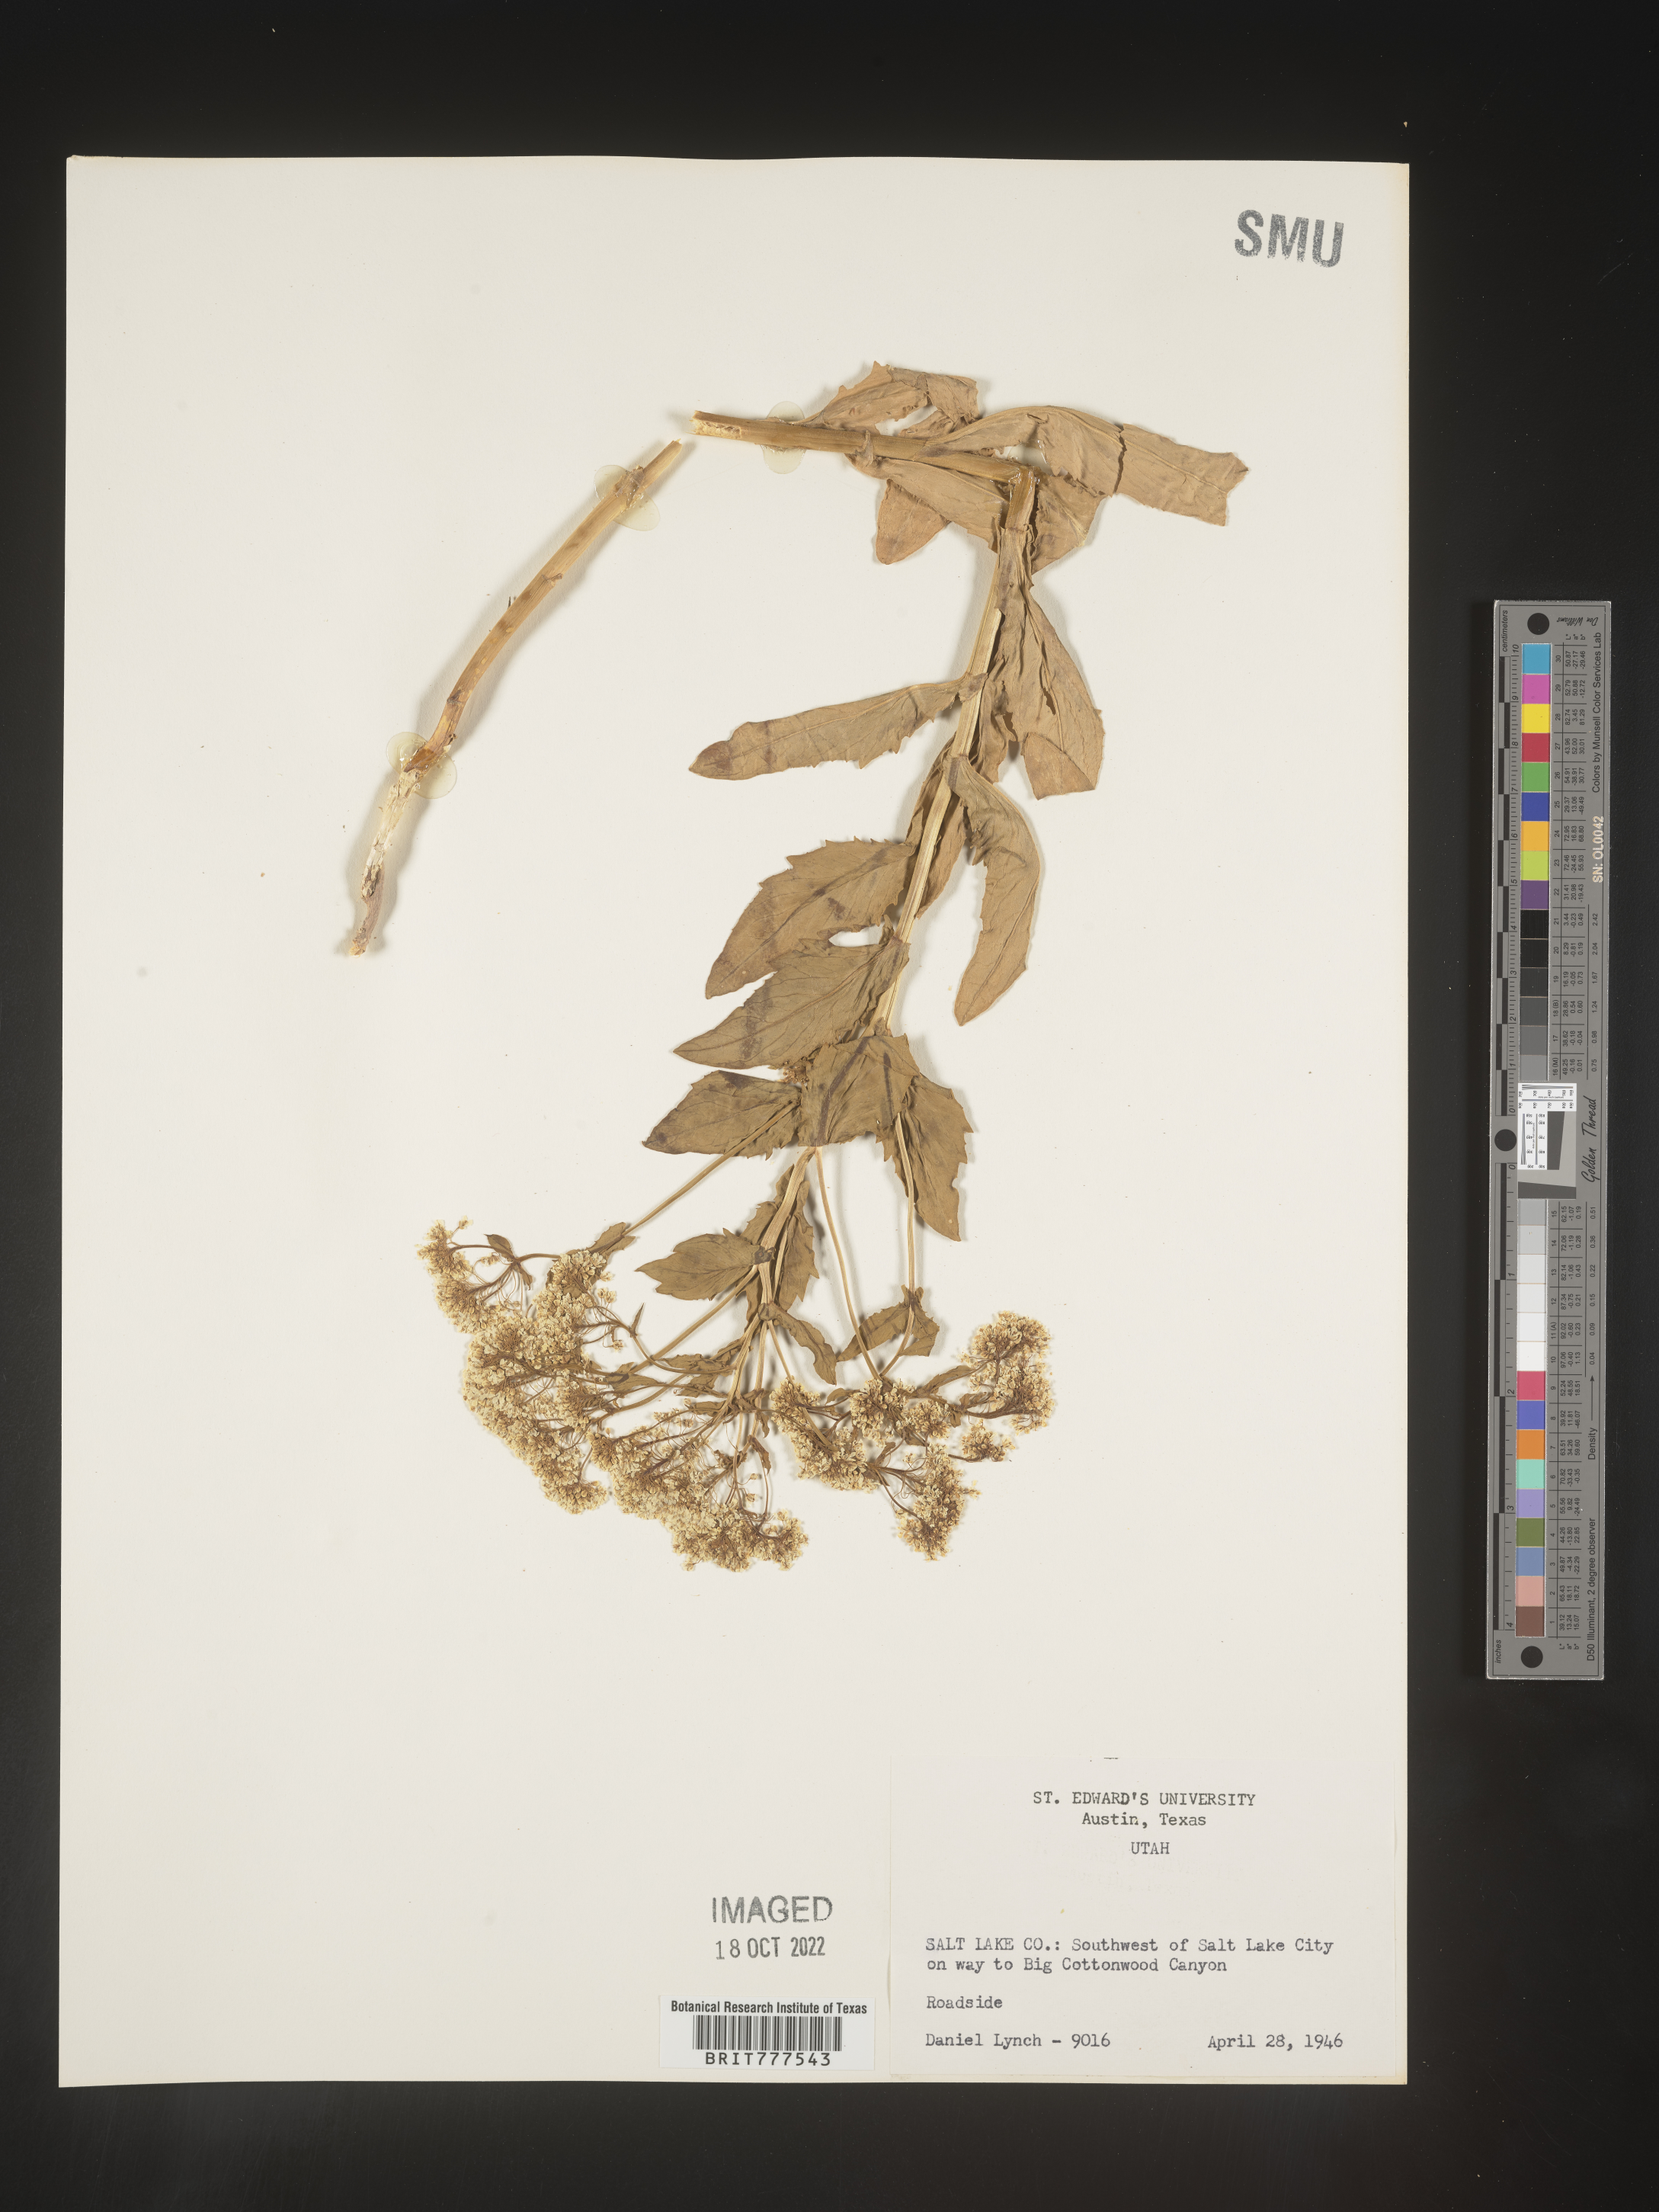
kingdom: Plantae
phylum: Tracheophyta
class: Magnoliopsida
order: Brassicales
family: Brassicaceae
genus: Lepidium
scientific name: Lepidium
